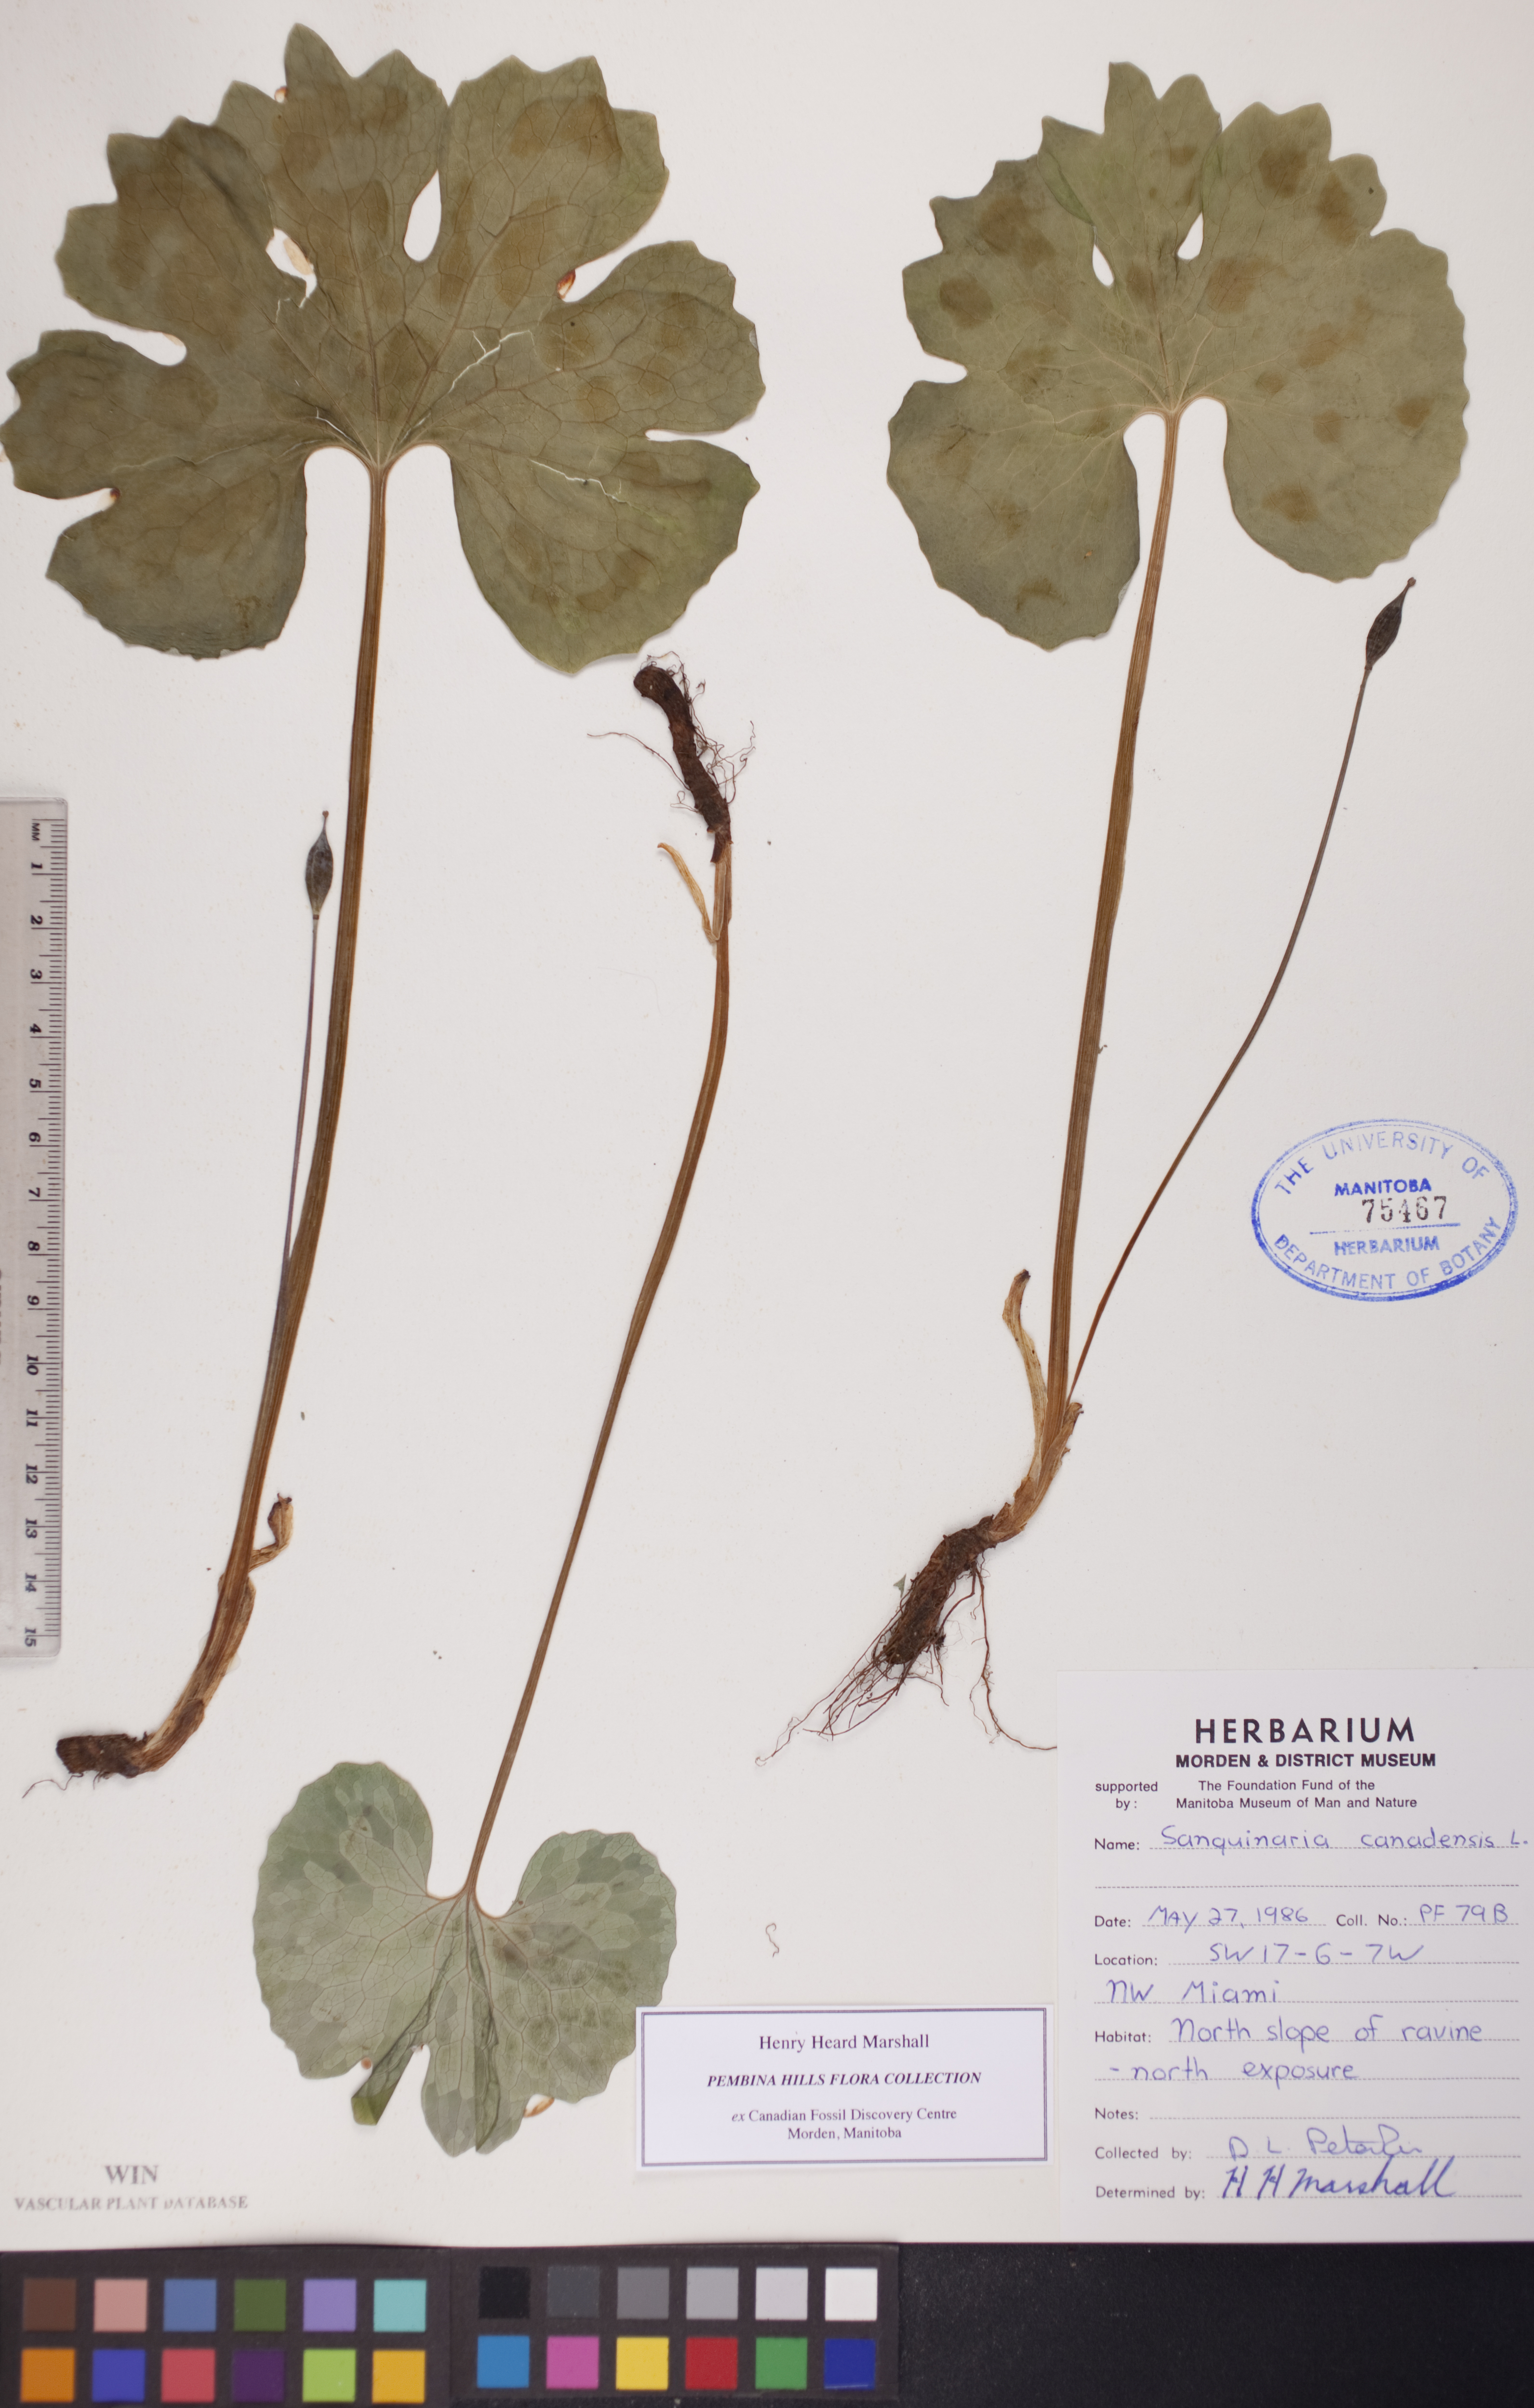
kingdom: Plantae
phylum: Tracheophyta
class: Magnoliopsida
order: Ranunculales
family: Papaveraceae
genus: Sanguinaria
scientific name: Sanguinaria canadensis
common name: Bloodroot
